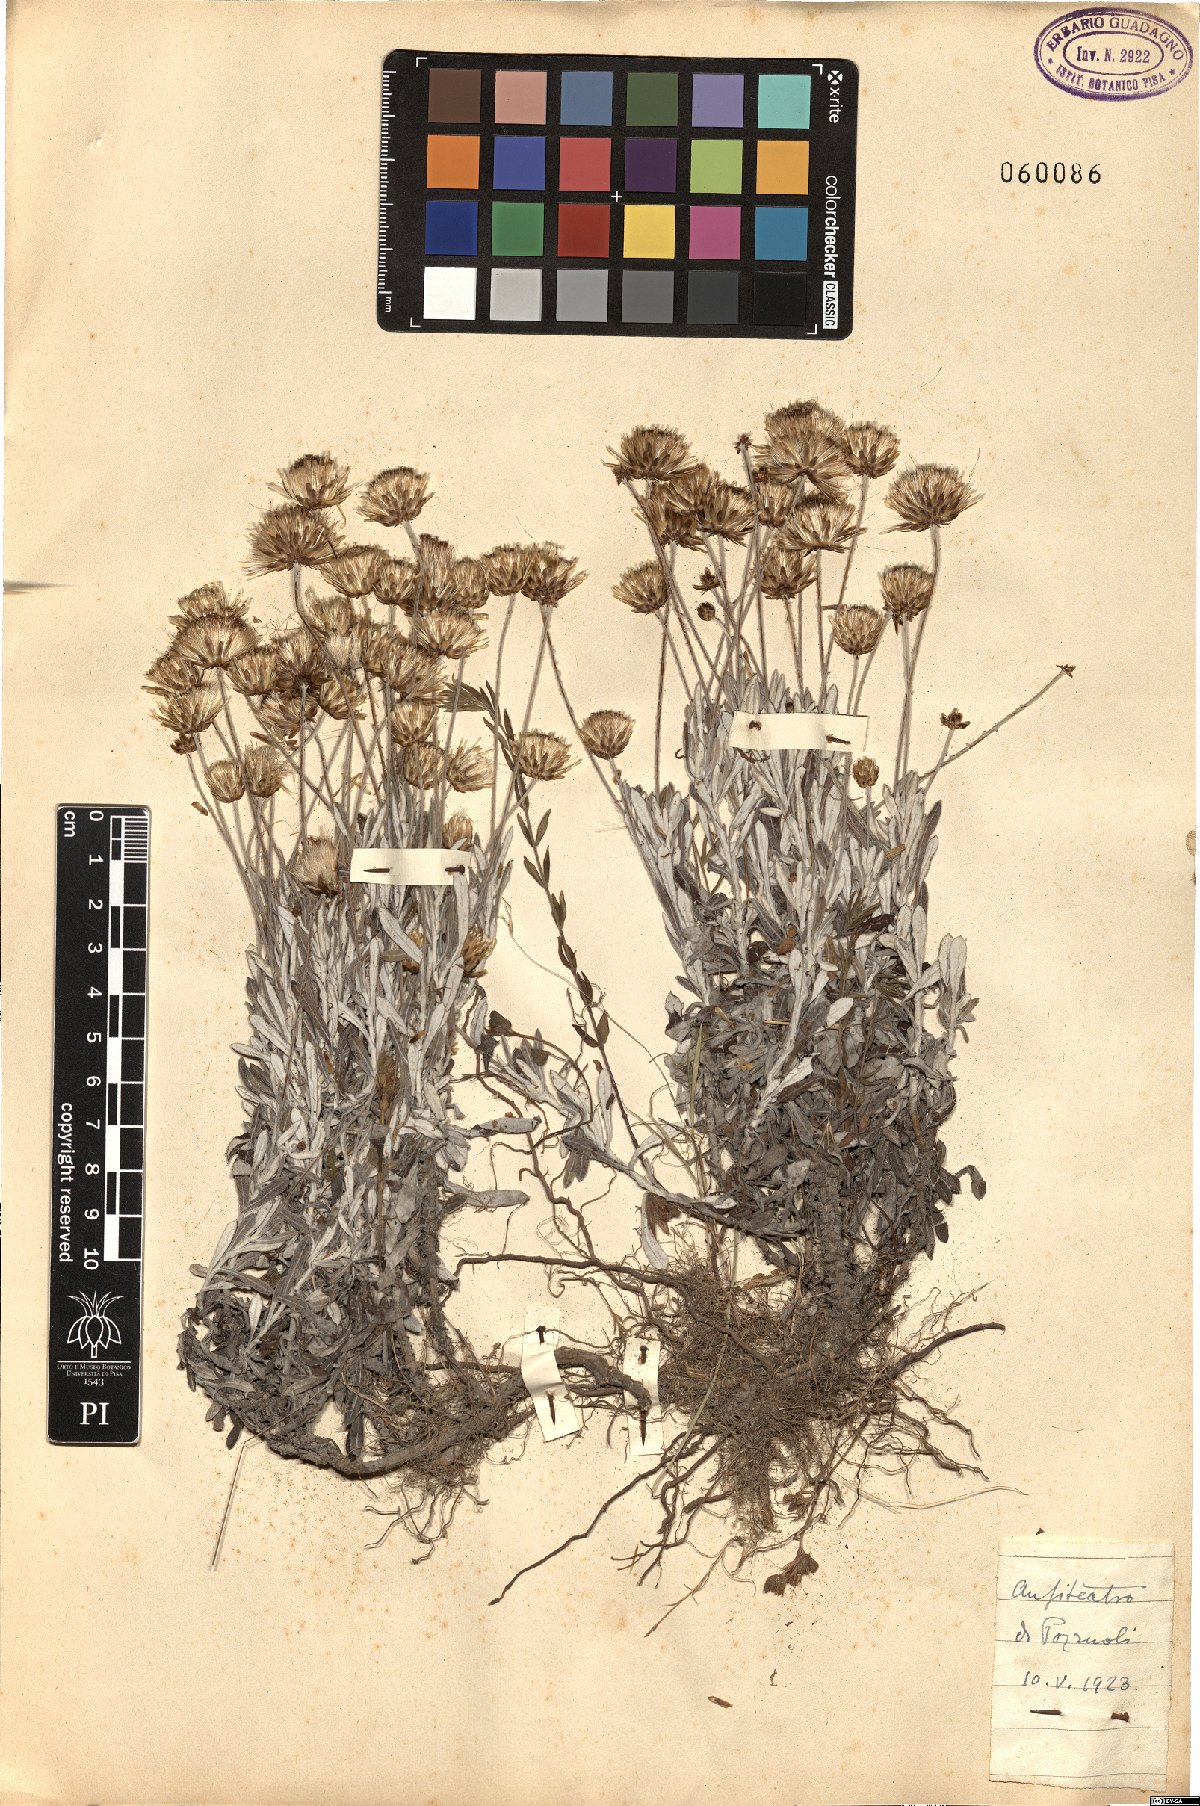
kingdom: Plantae
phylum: Tracheophyta
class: Magnoliopsida
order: Asterales
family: Asteraceae
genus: Phagnalon
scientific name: Phagnalon rupestre
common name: Rock phagnalon
